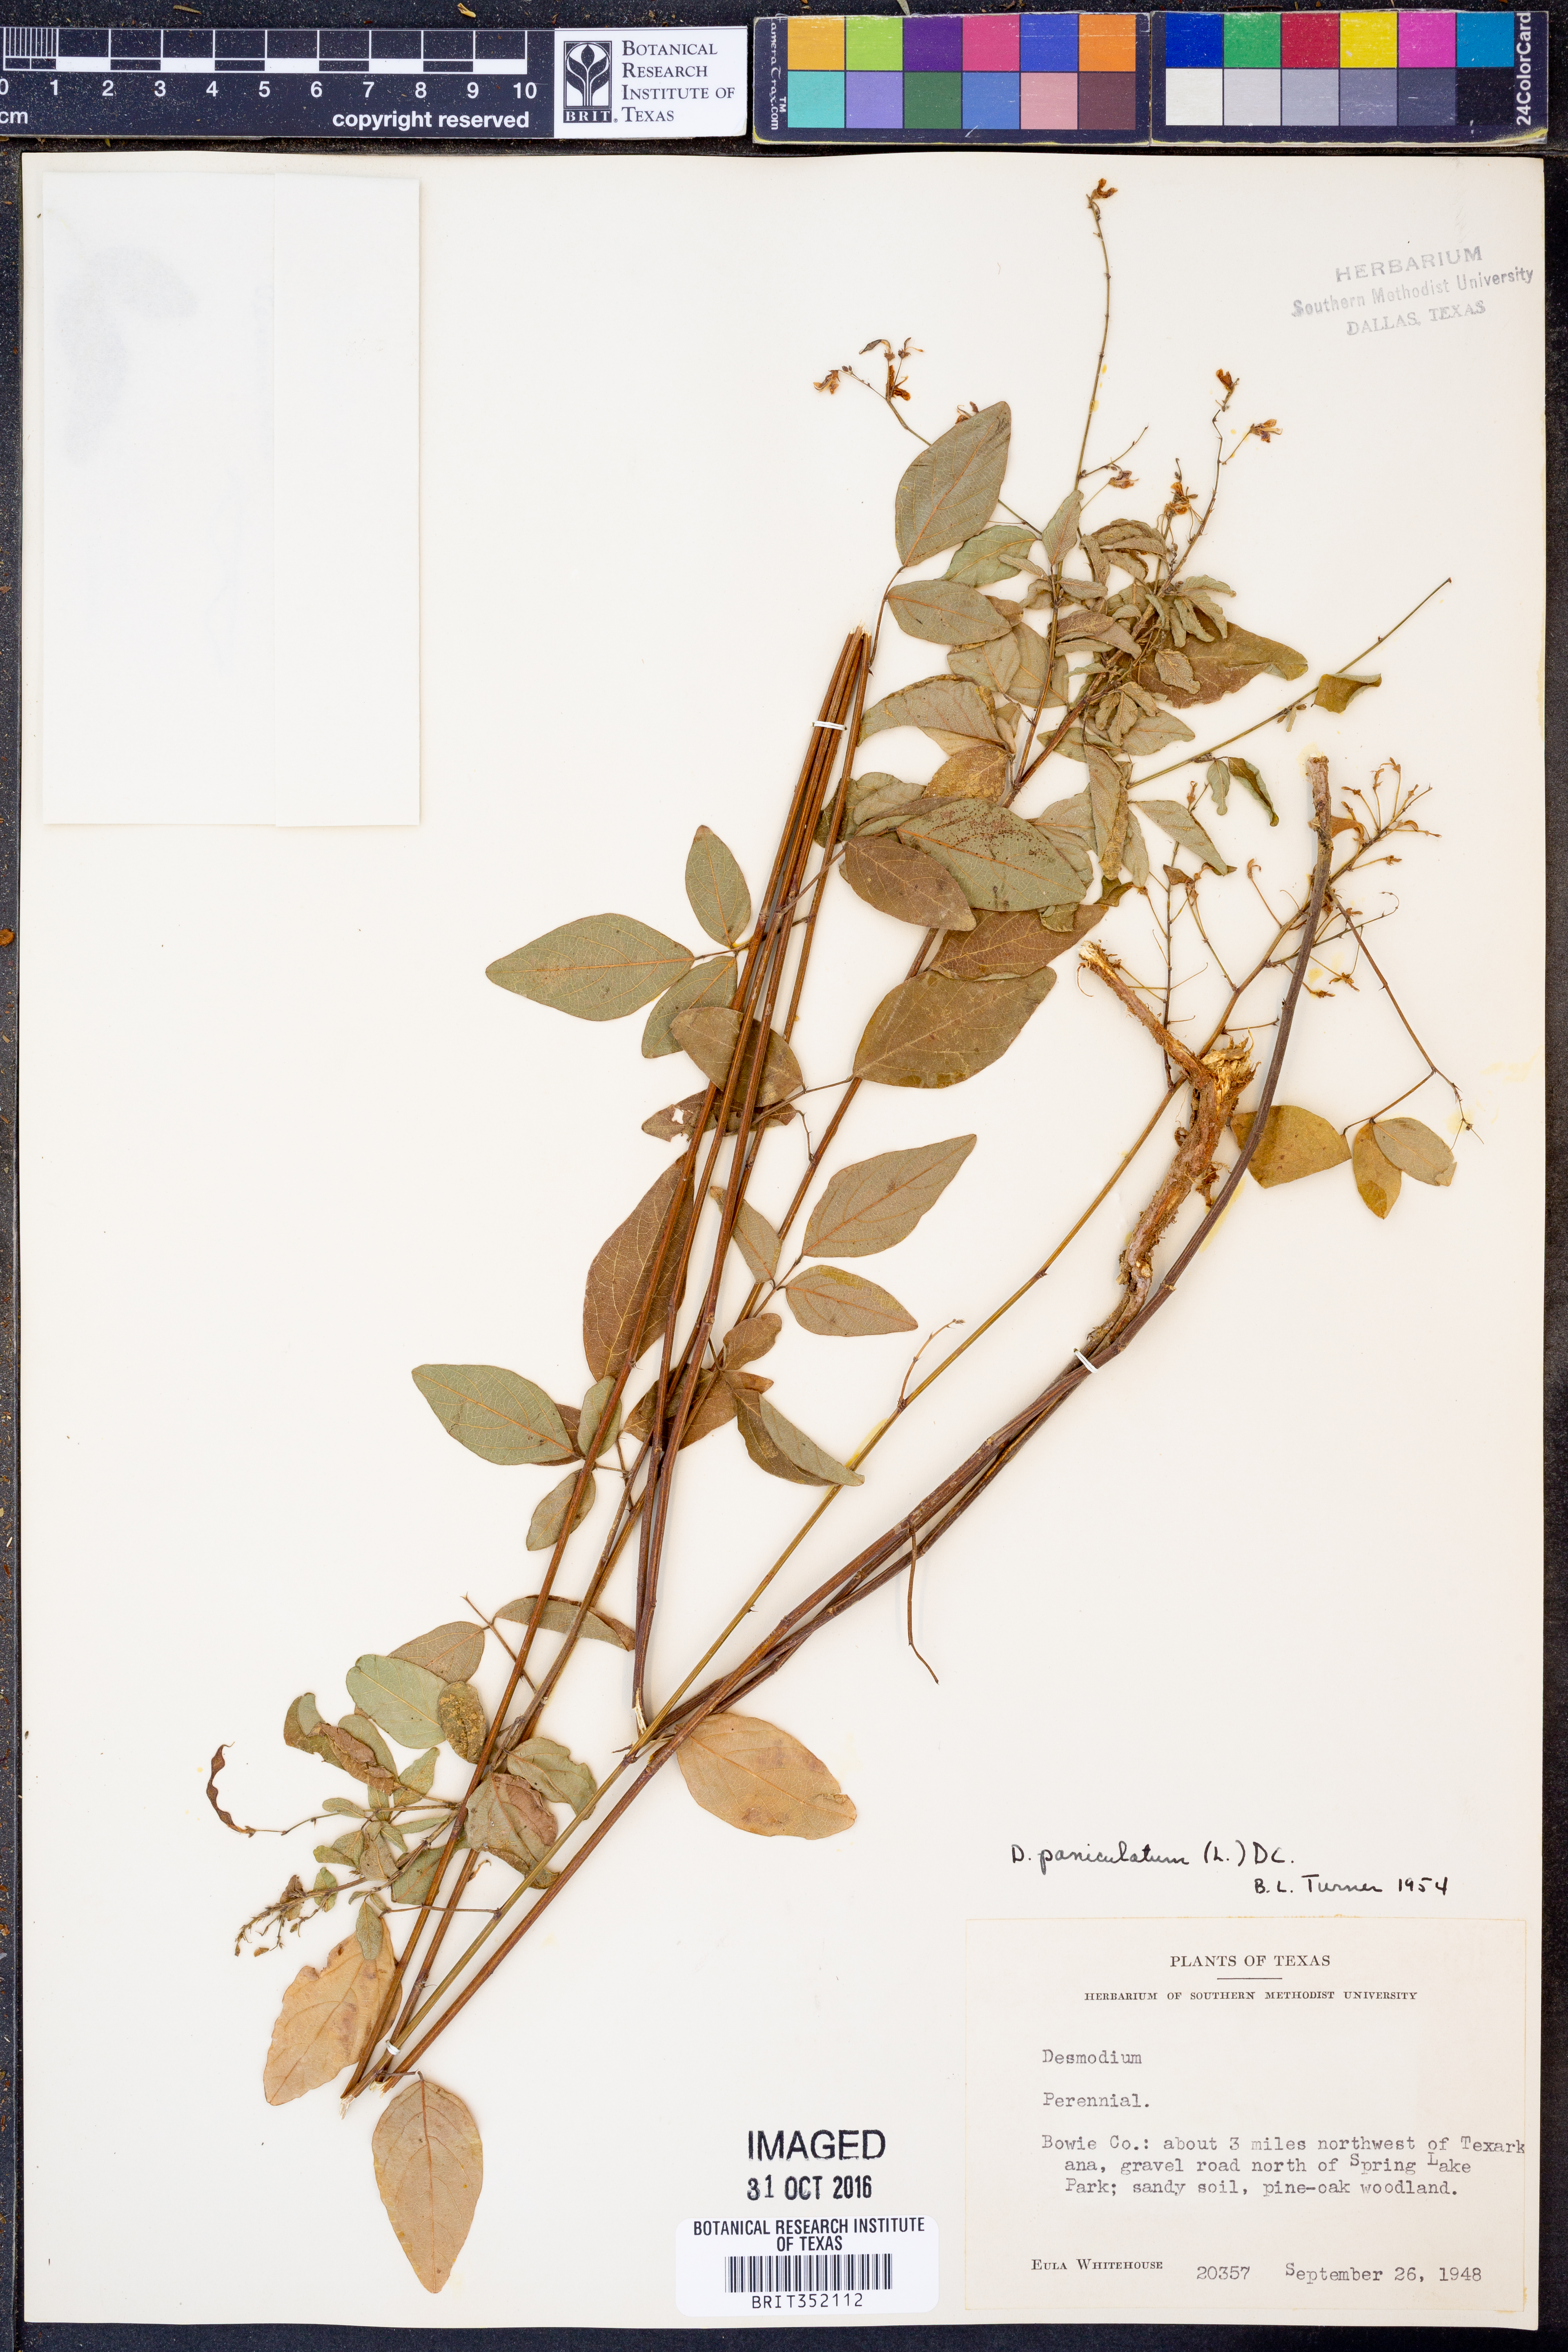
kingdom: Plantae
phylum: Tracheophyta
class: Magnoliopsida
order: Fabales
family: Fabaceae
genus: Hylodesmum
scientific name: Hylodesmum pauciflorum
